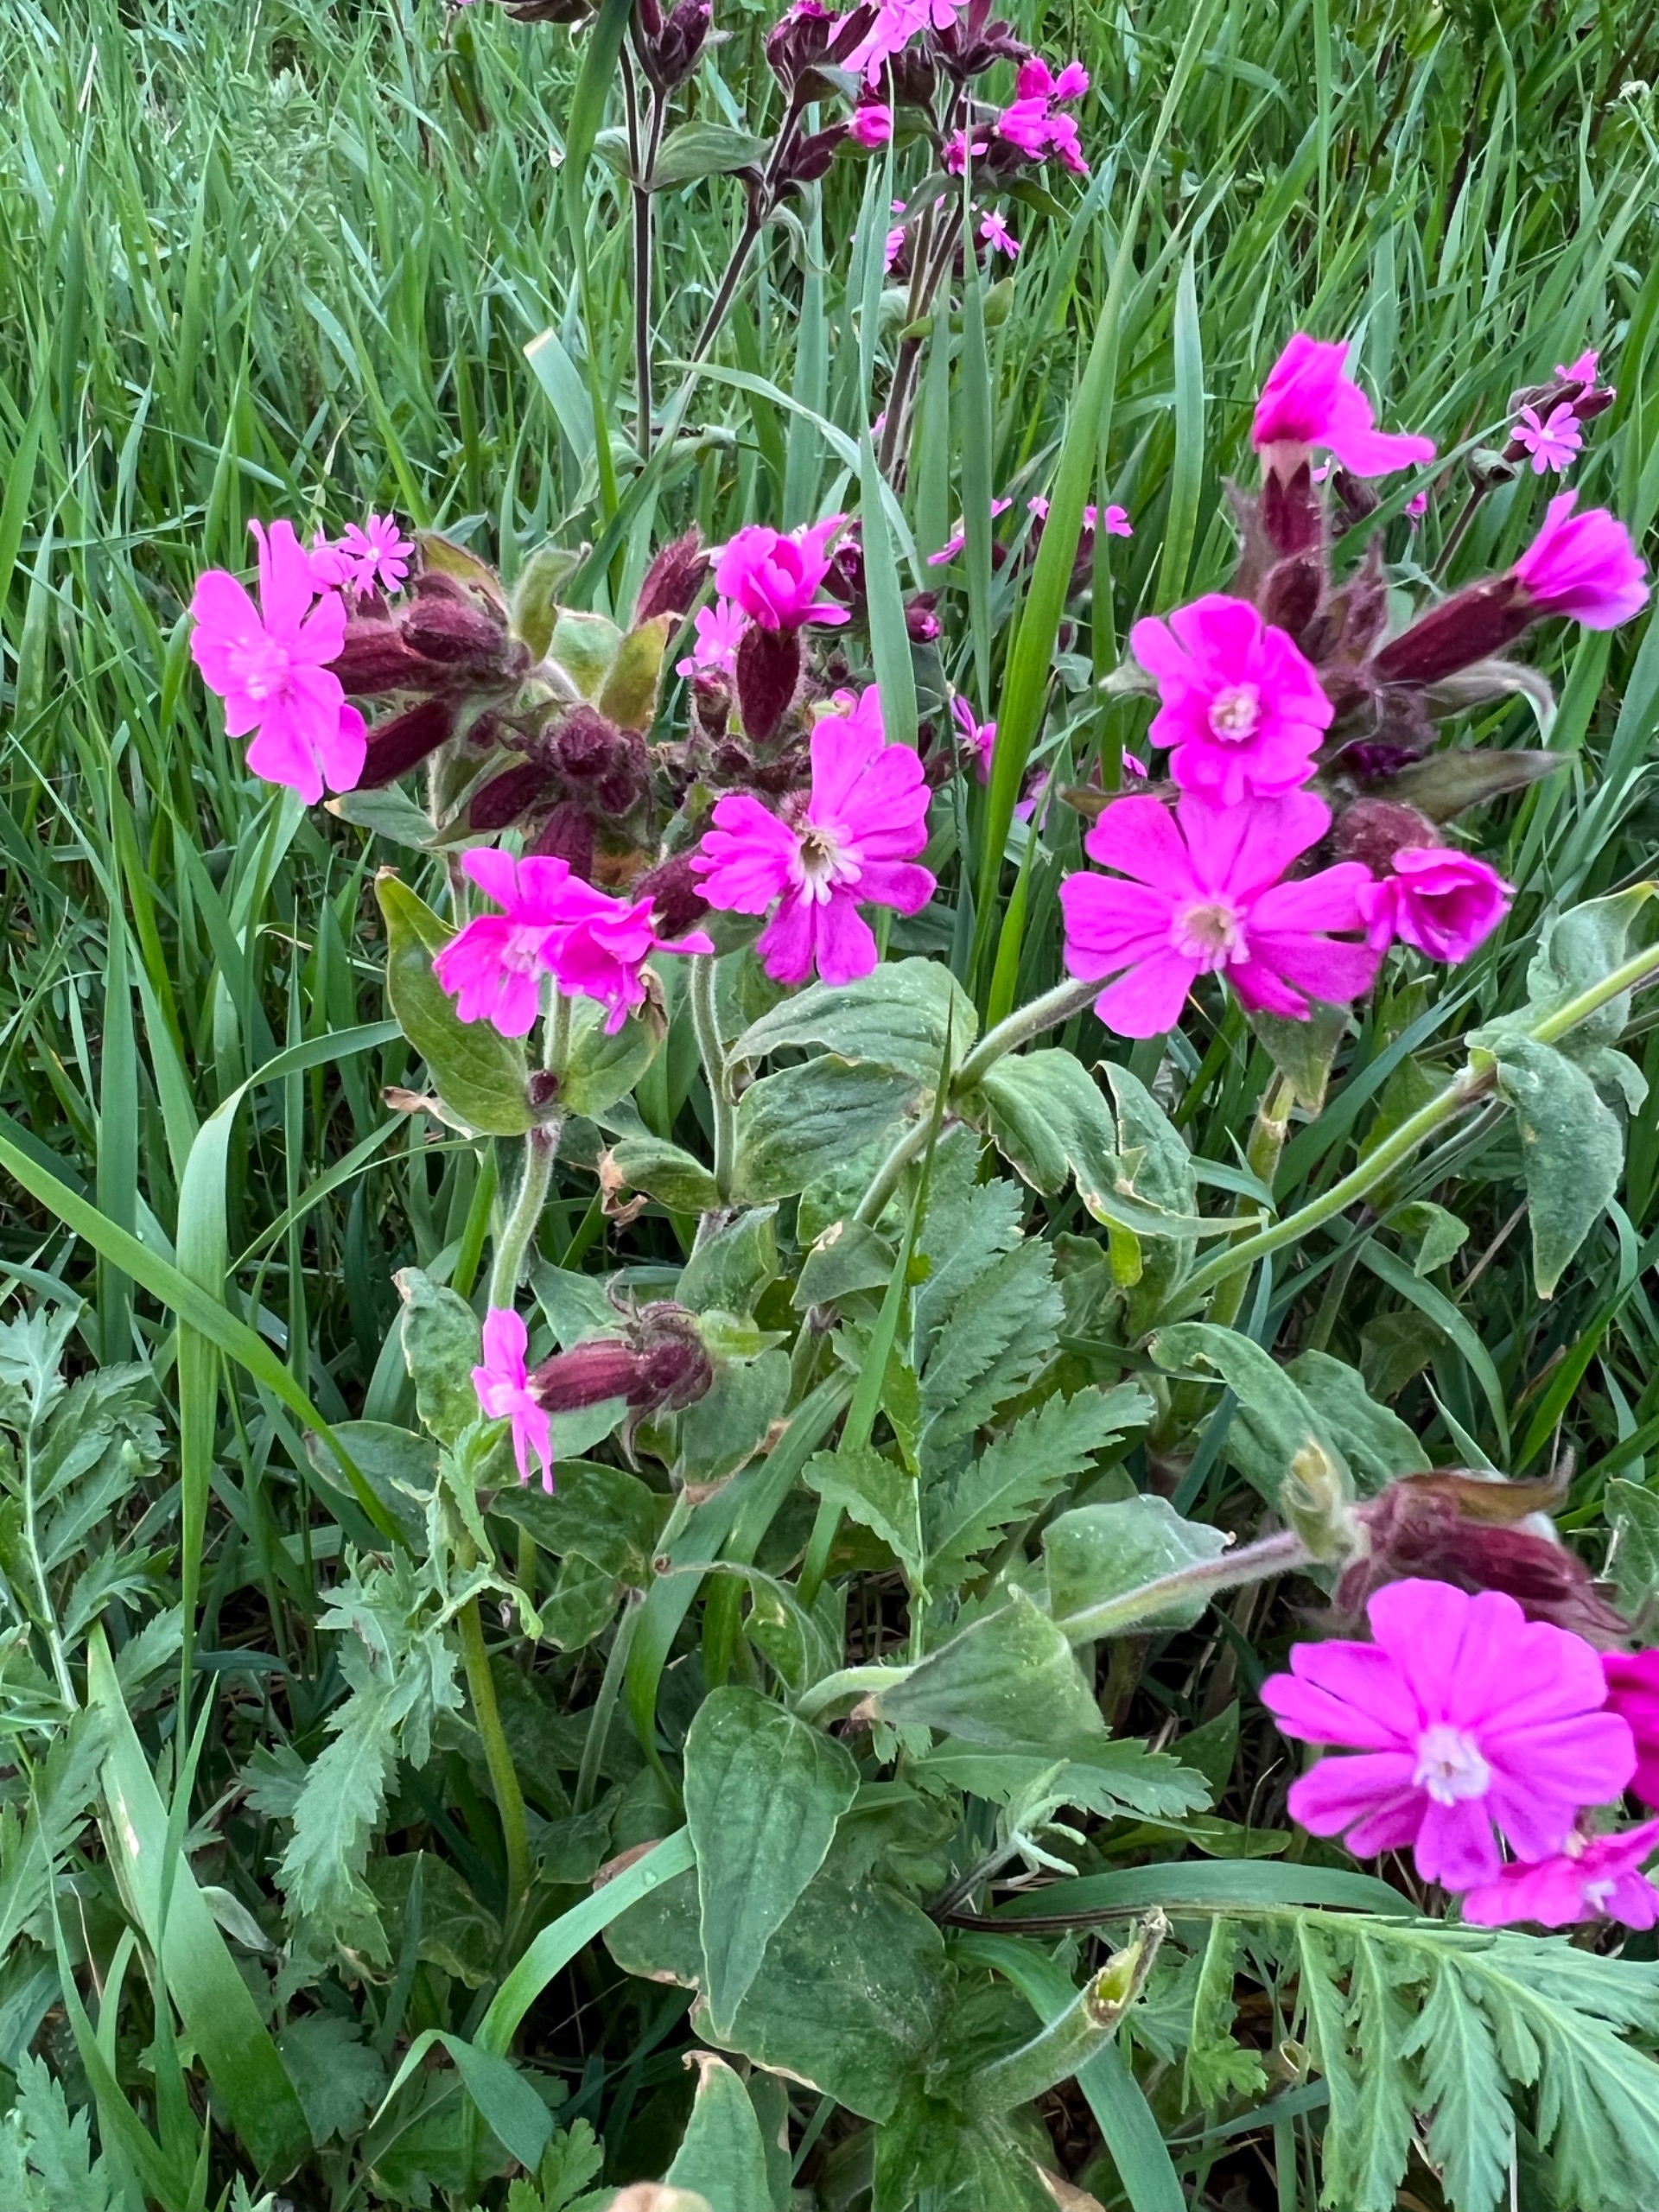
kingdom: Plantae
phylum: Tracheophyta
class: Magnoliopsida
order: Caryophyllales
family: Caryophyllaceae
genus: Silene
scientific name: Silene dioica
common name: Dagpragtstjerne
